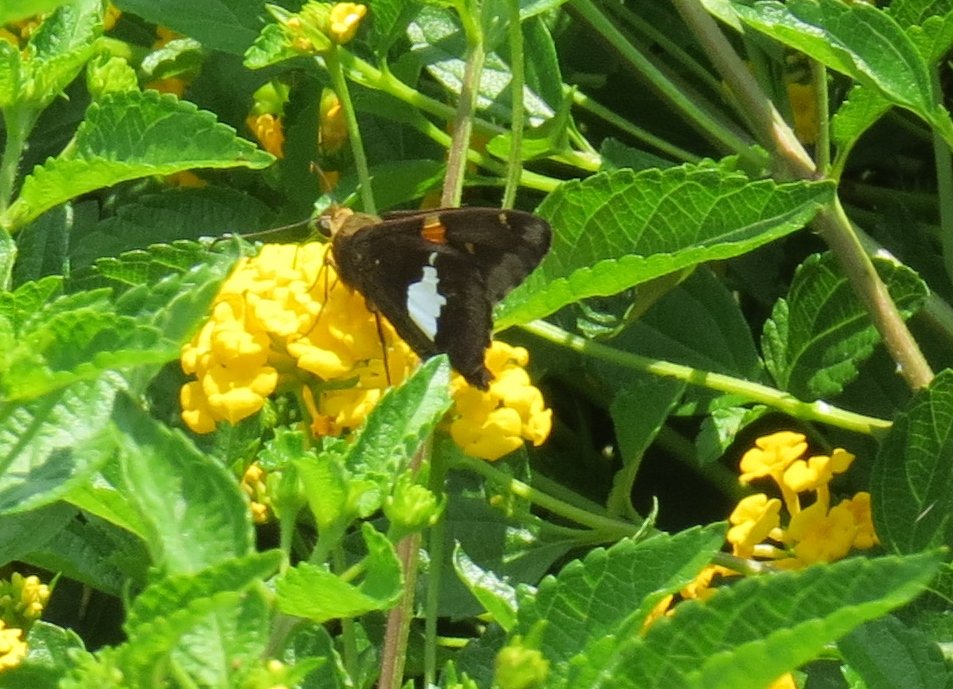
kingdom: Animalia
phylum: Arthropoda
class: Insecta
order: Lepidoptera
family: Hesperiidae
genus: Epargyreus
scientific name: Epargyreus clarus
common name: Silver-spotted Skipper
